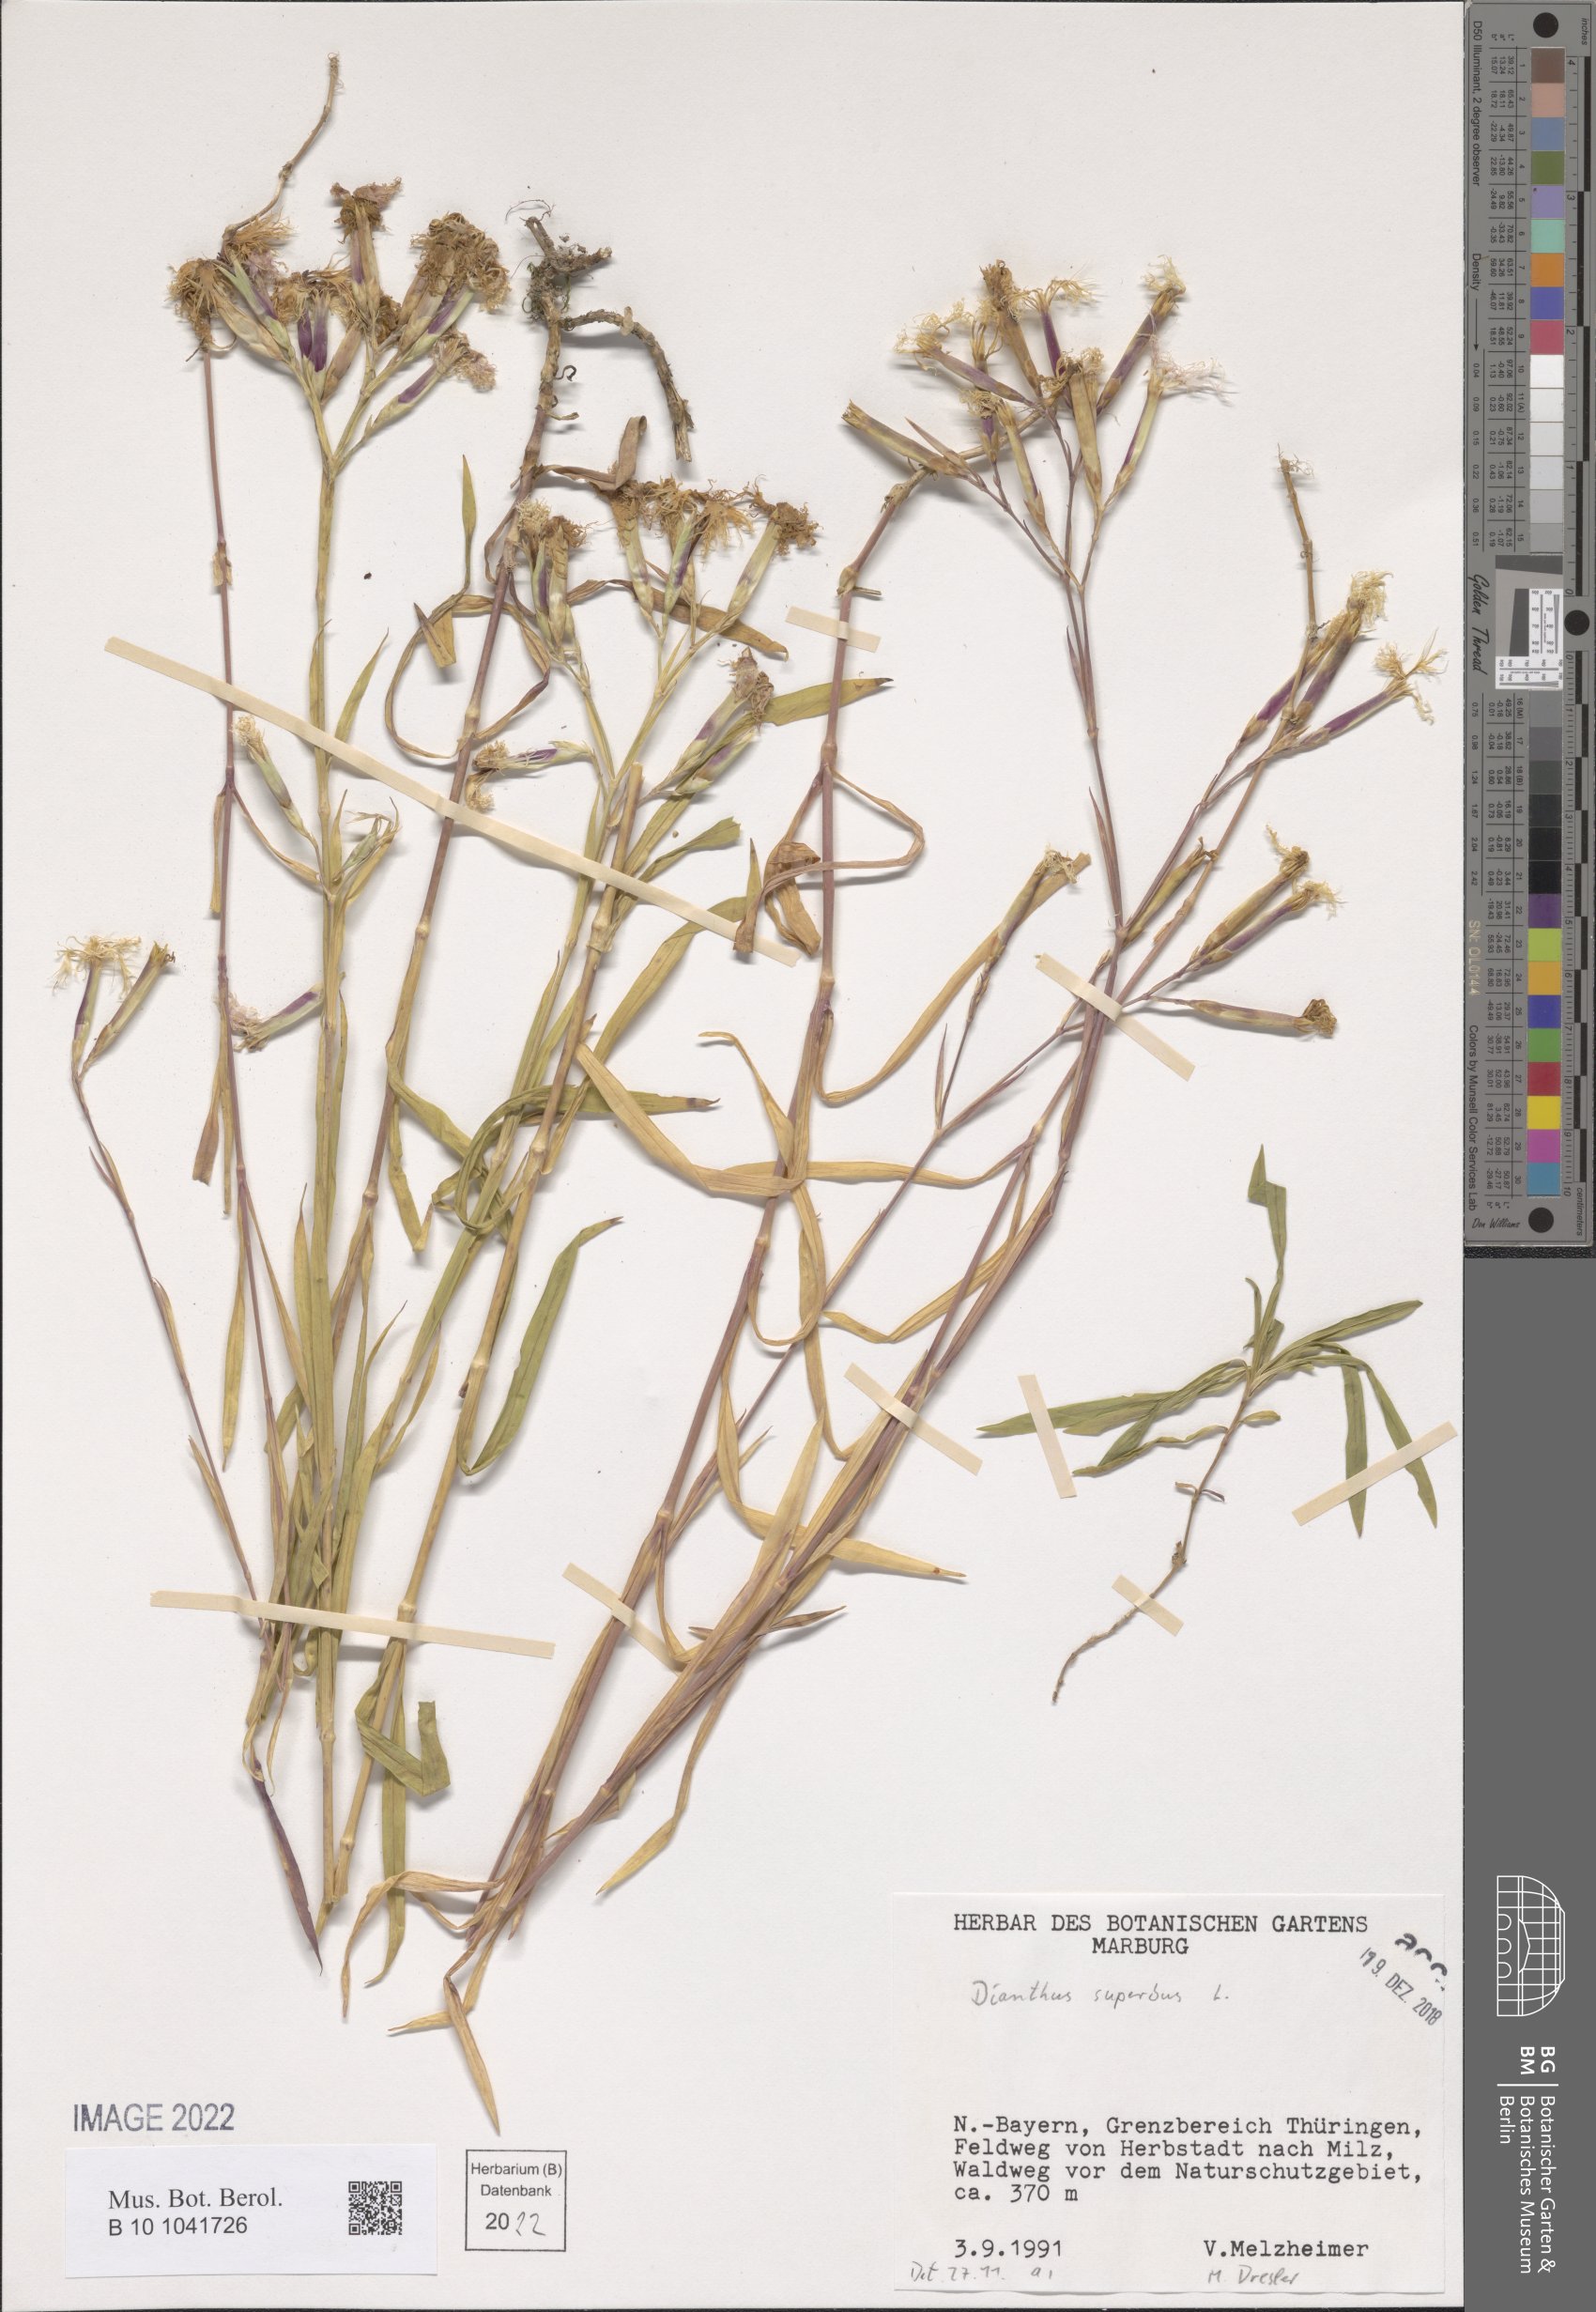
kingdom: Plantae
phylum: Tracheophyta
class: Magnoliopsida
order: Caryophyllales
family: Caryophyllaceae
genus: Dianthus
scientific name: Dianthus superbus
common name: Fringed pink
